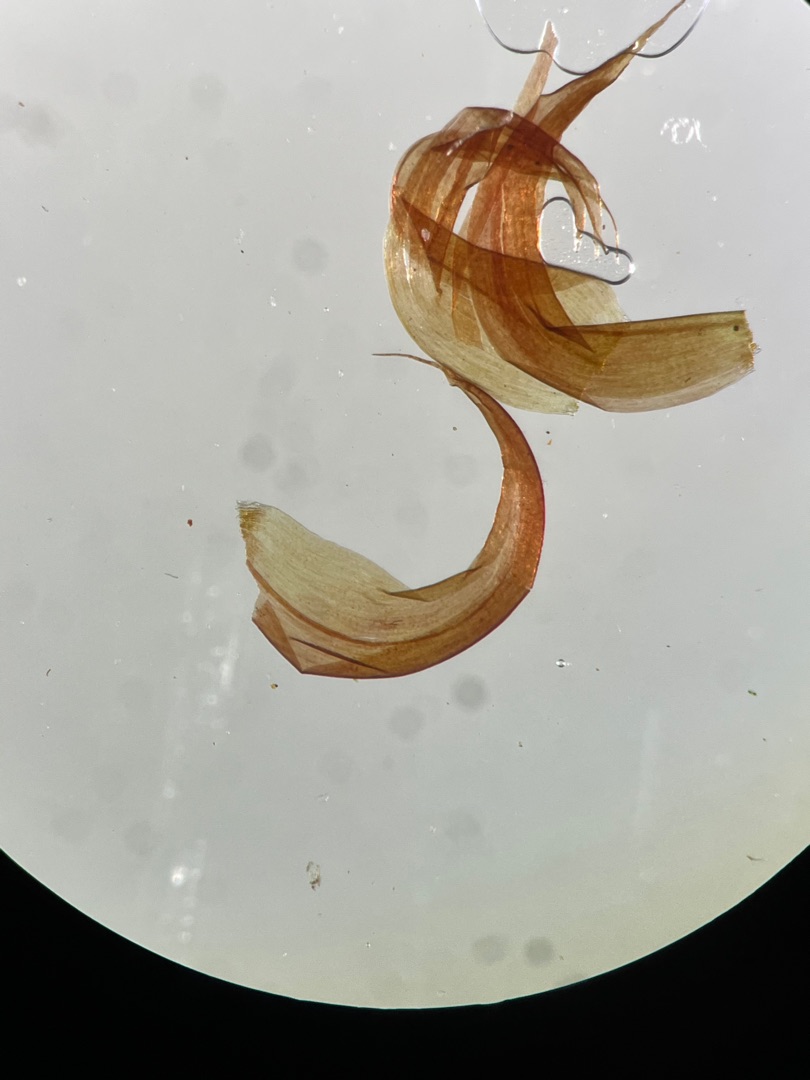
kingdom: Plantae
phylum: Bryophyta
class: Bryopsida
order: Hypnales
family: Scorpidiaceae
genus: Scorpidium
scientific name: Scorpidium revolvens
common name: Rød krumblad
